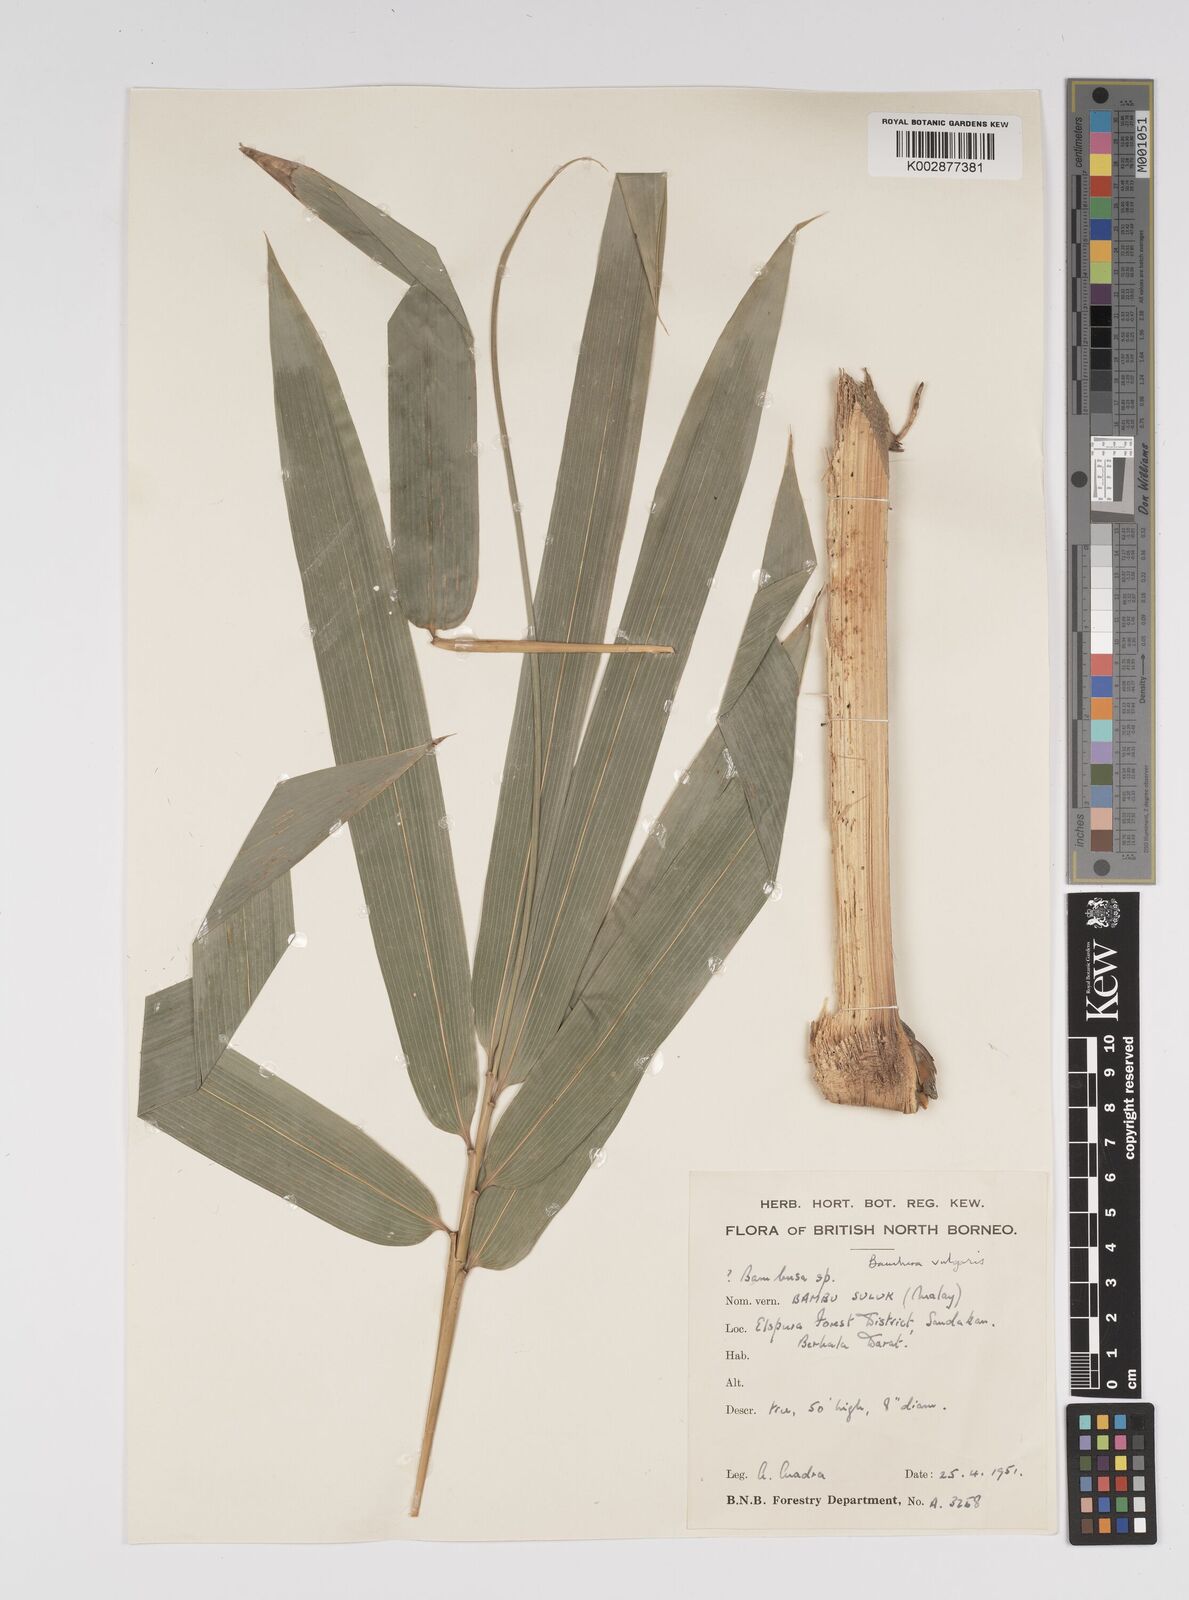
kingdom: Plantae
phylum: Tracheophyta
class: Liliopsida
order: Poales
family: Poaceae
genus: Bambusa
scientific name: Bambusa
